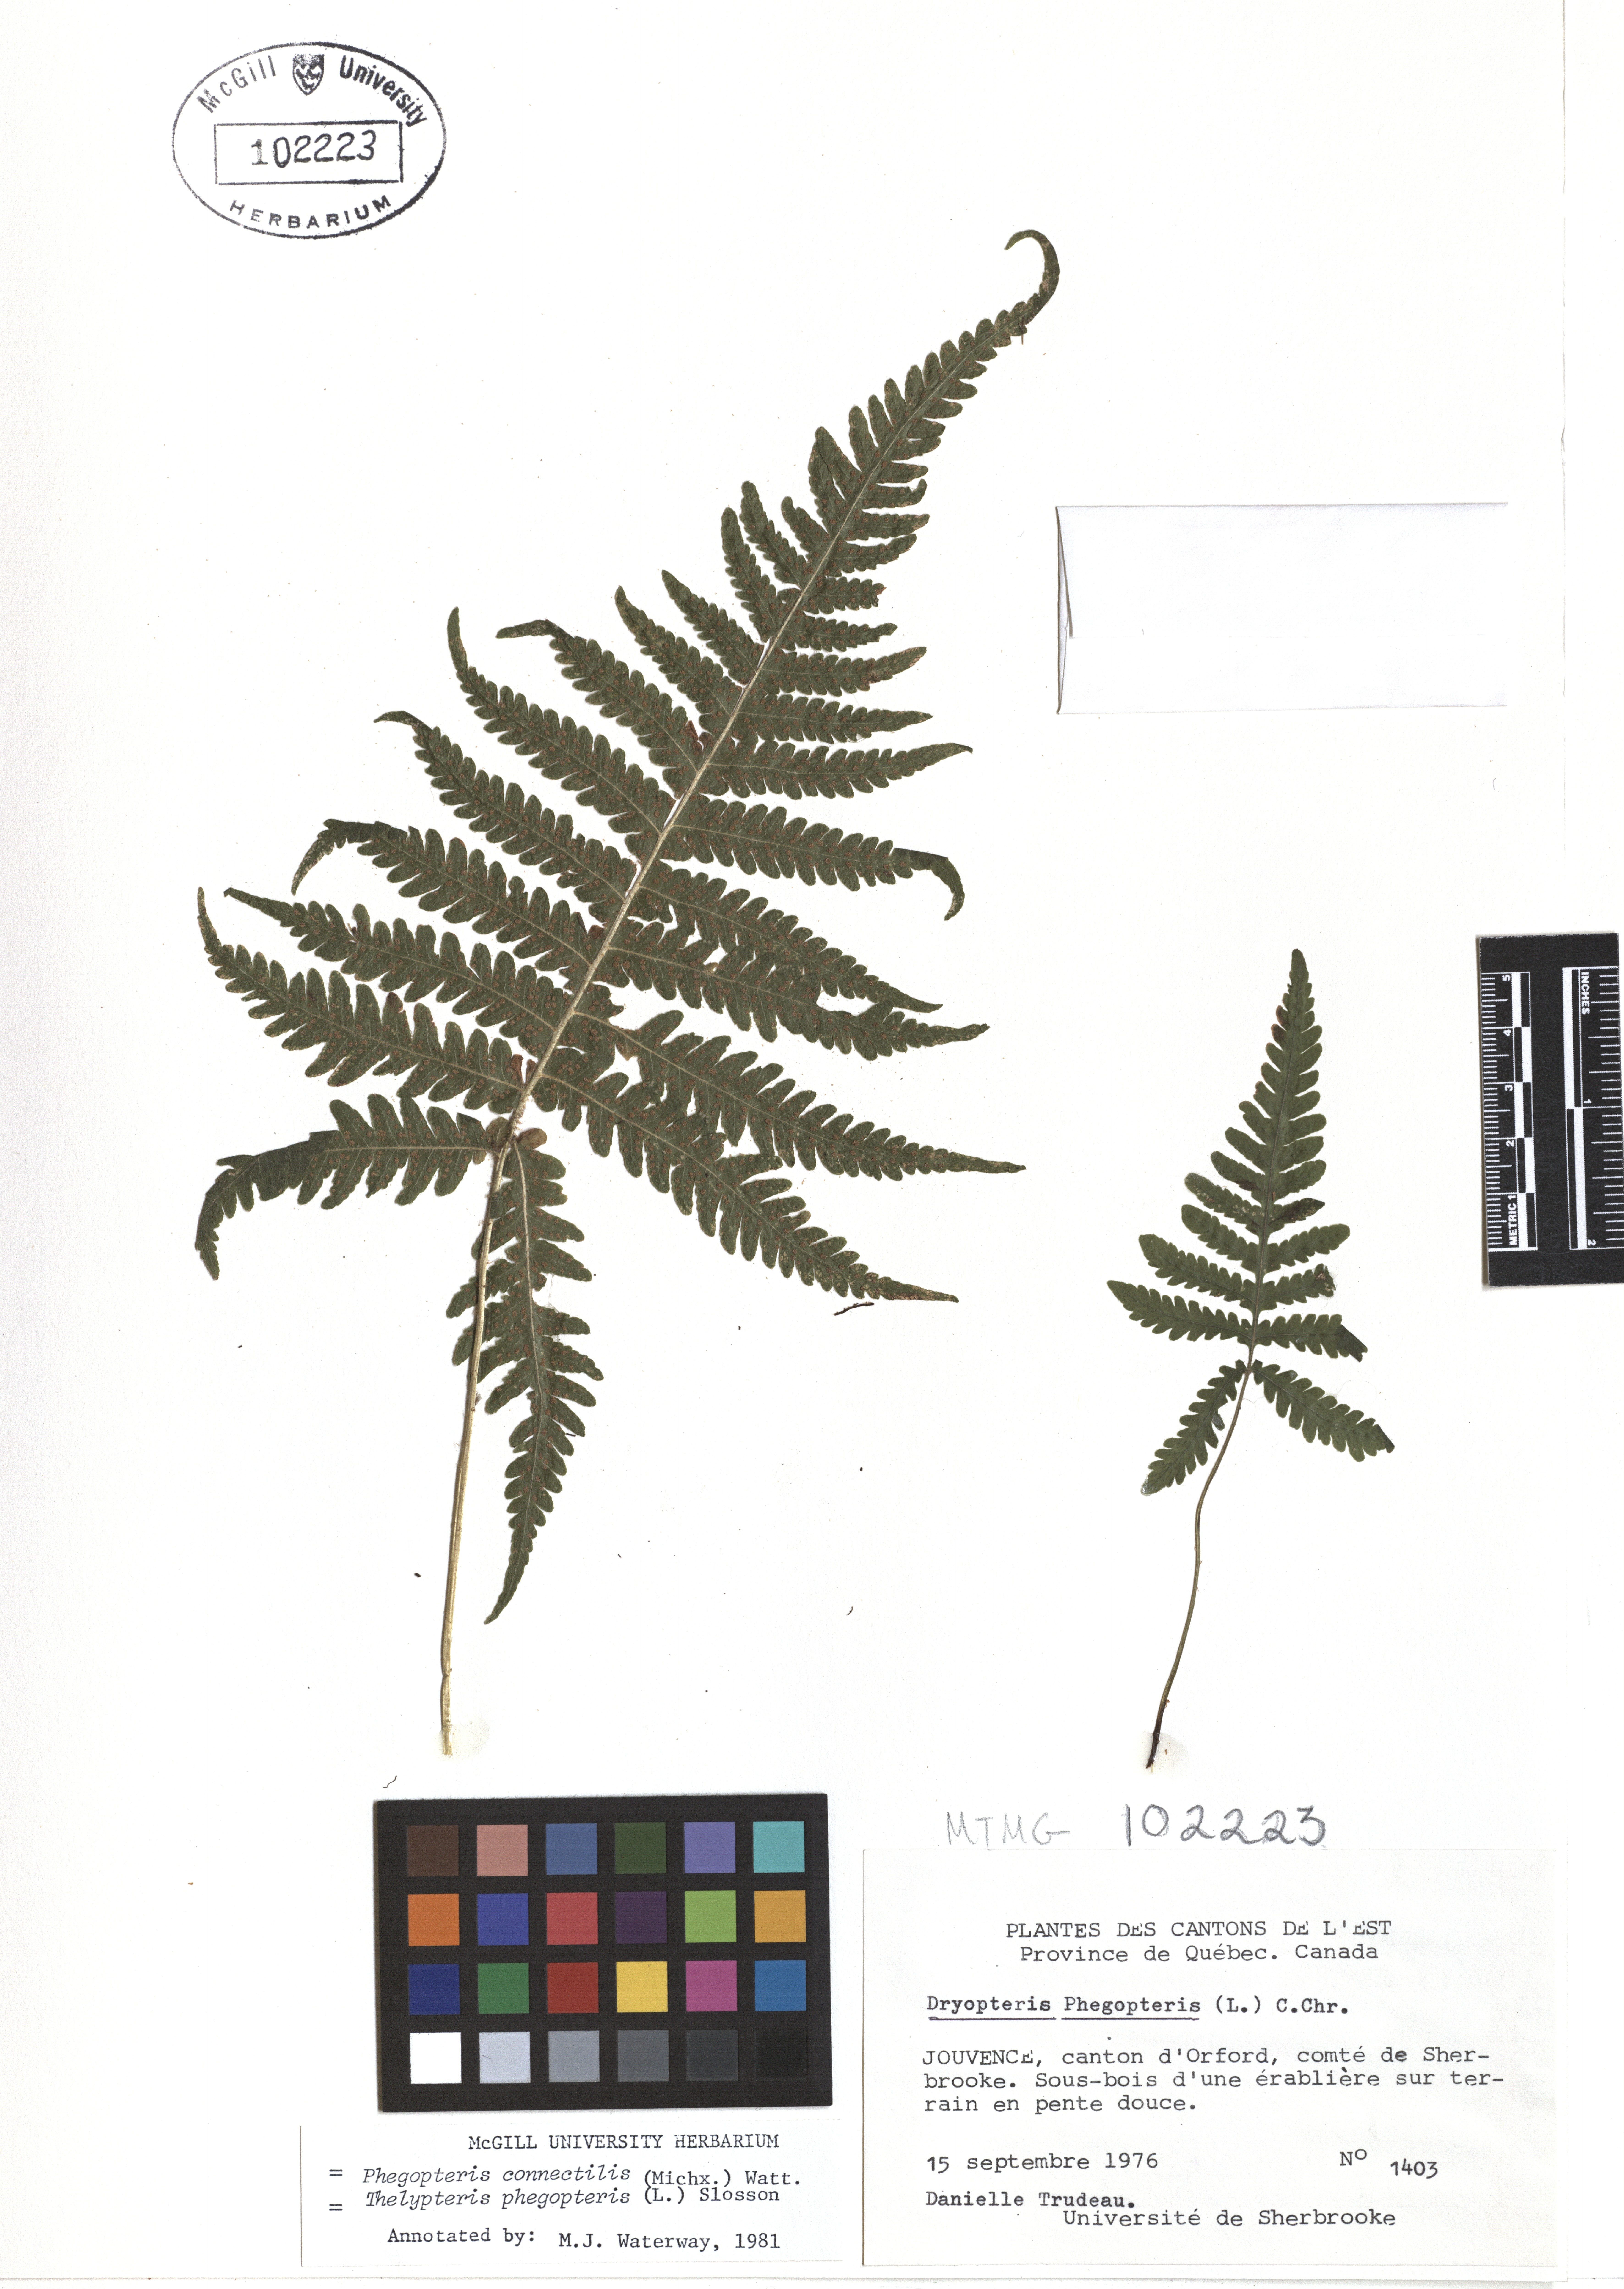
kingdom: Plantae
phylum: Tracheophyta
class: Magnoliopsida
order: Gentianales
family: Gentianaceae
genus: Gentiana
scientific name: Gentiana andrewsii
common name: Bottle gentian
